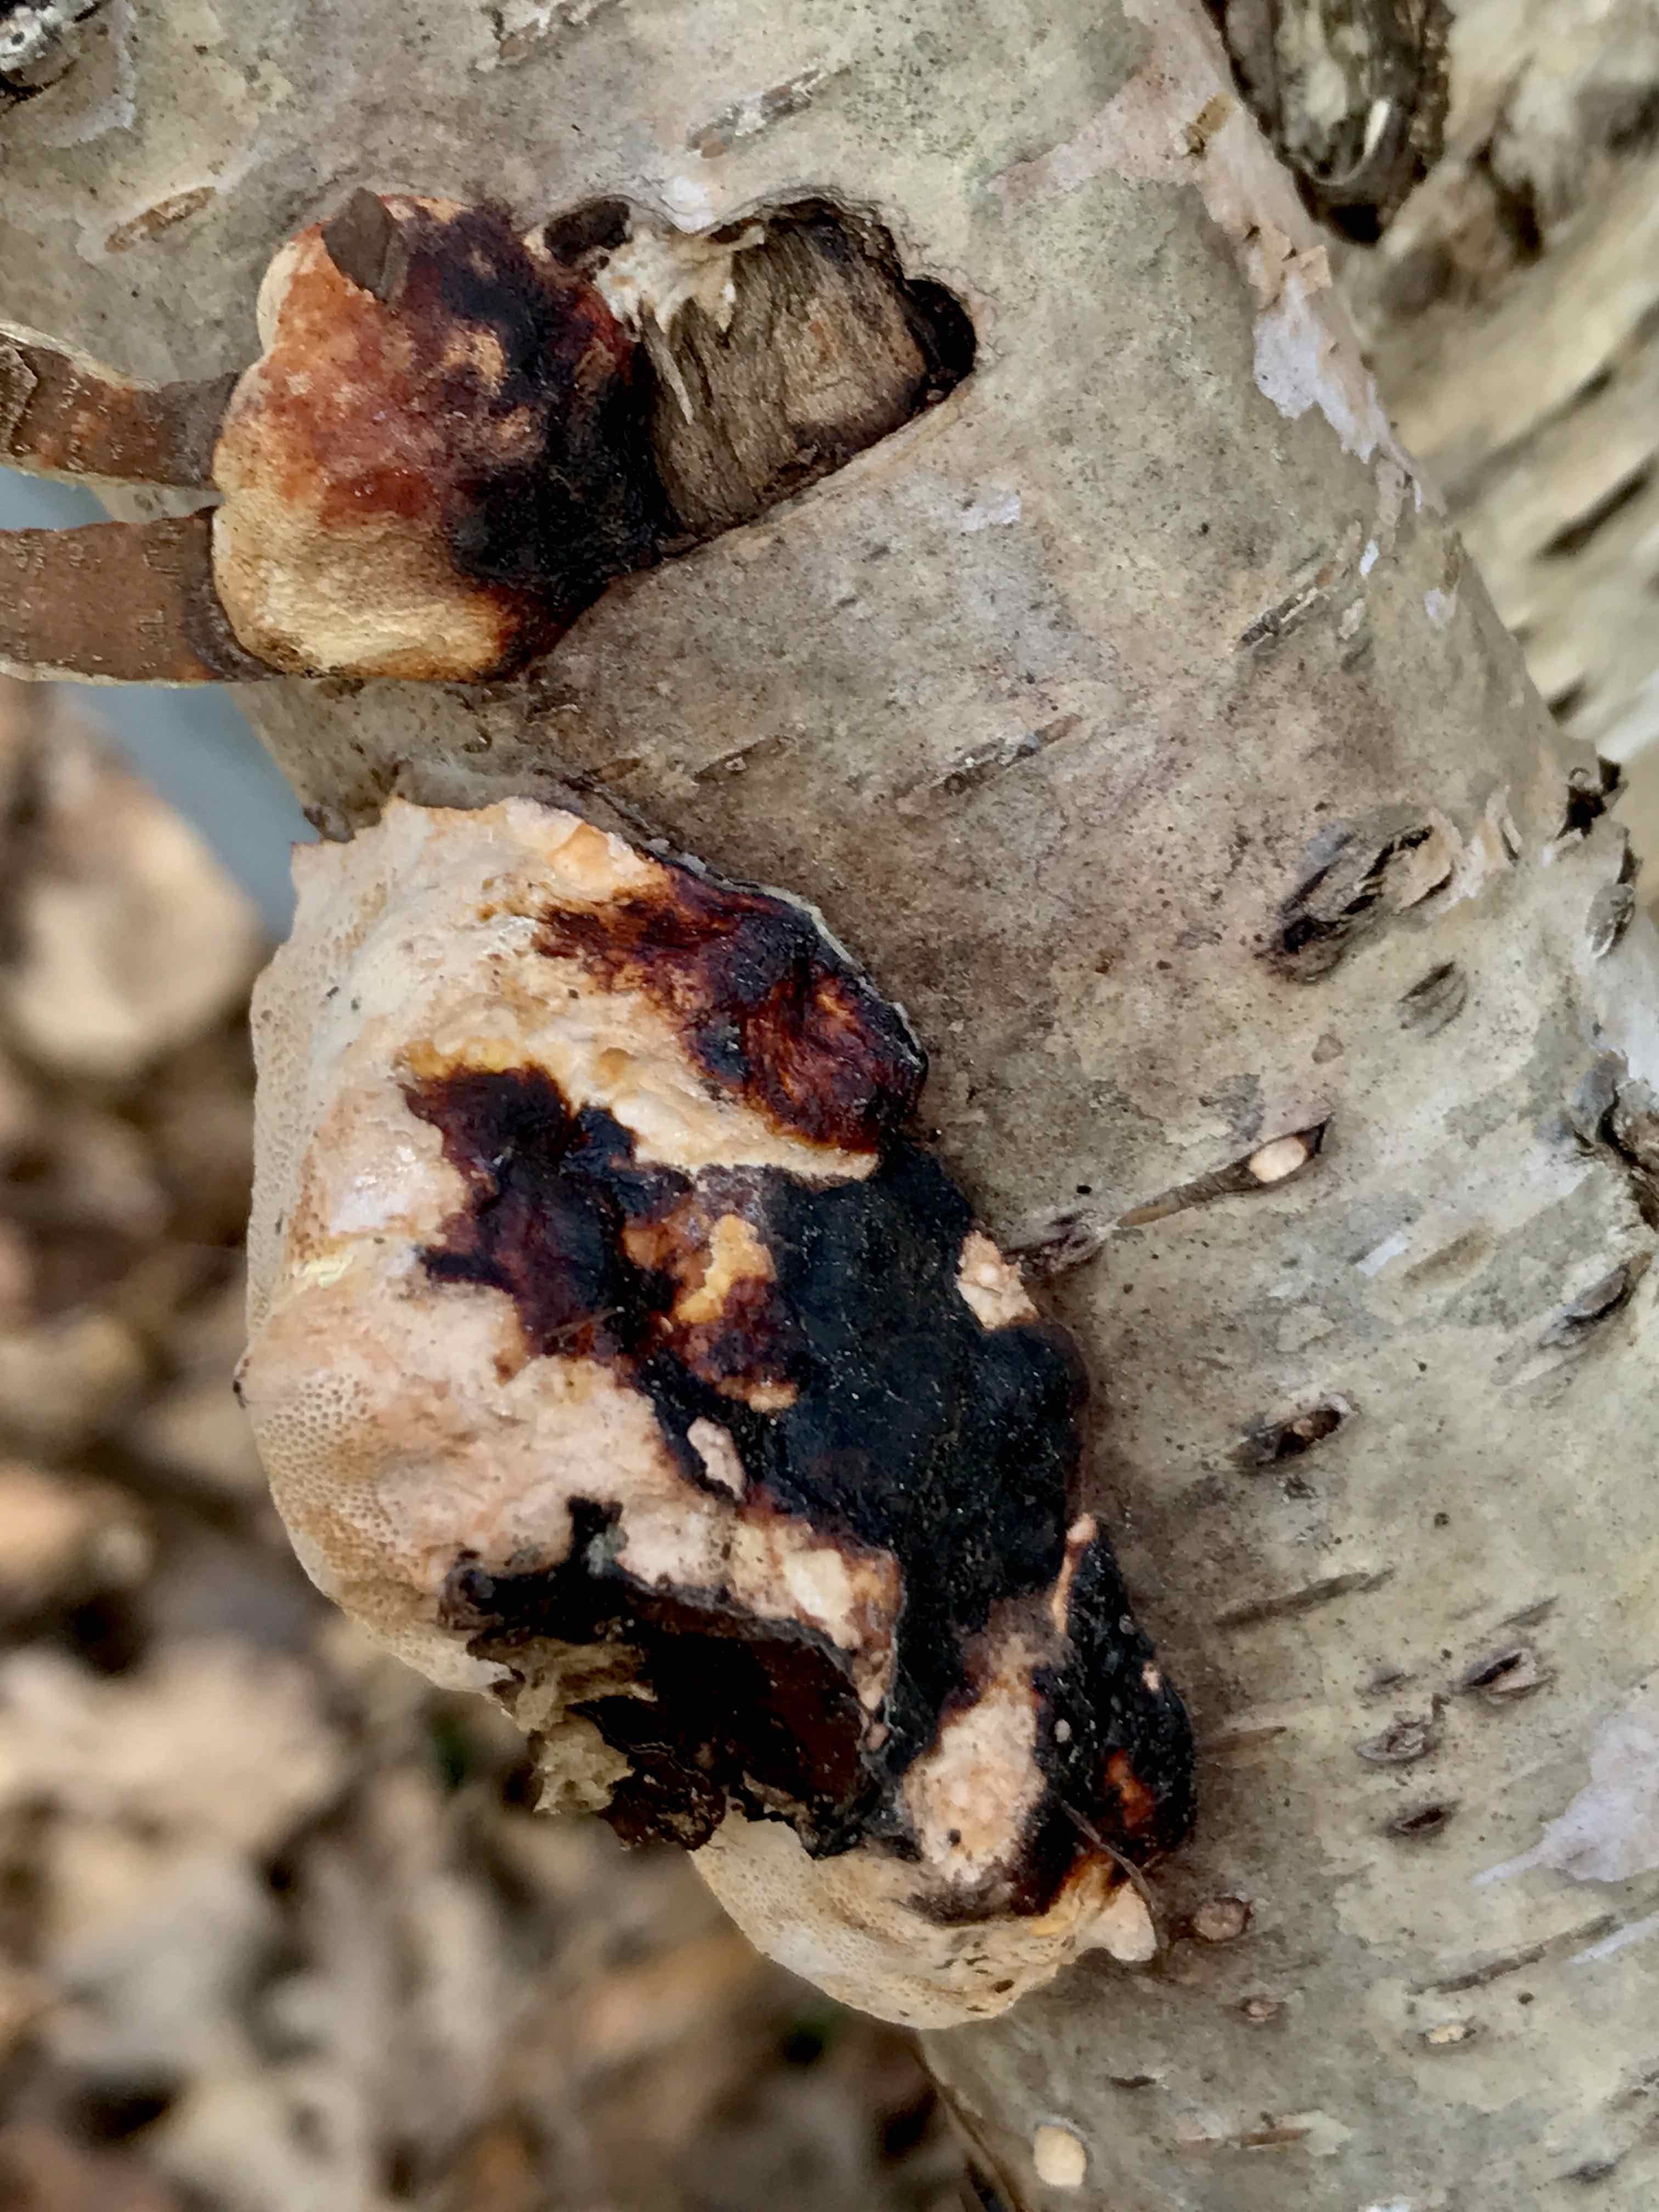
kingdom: Fungi
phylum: Basidiomycota
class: Agaricomycetes
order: Polyporales
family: Fomitopsidaceae
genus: Fomitopsis
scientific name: Fomitopsis pinicola
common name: randbæltet hovporesvamp
